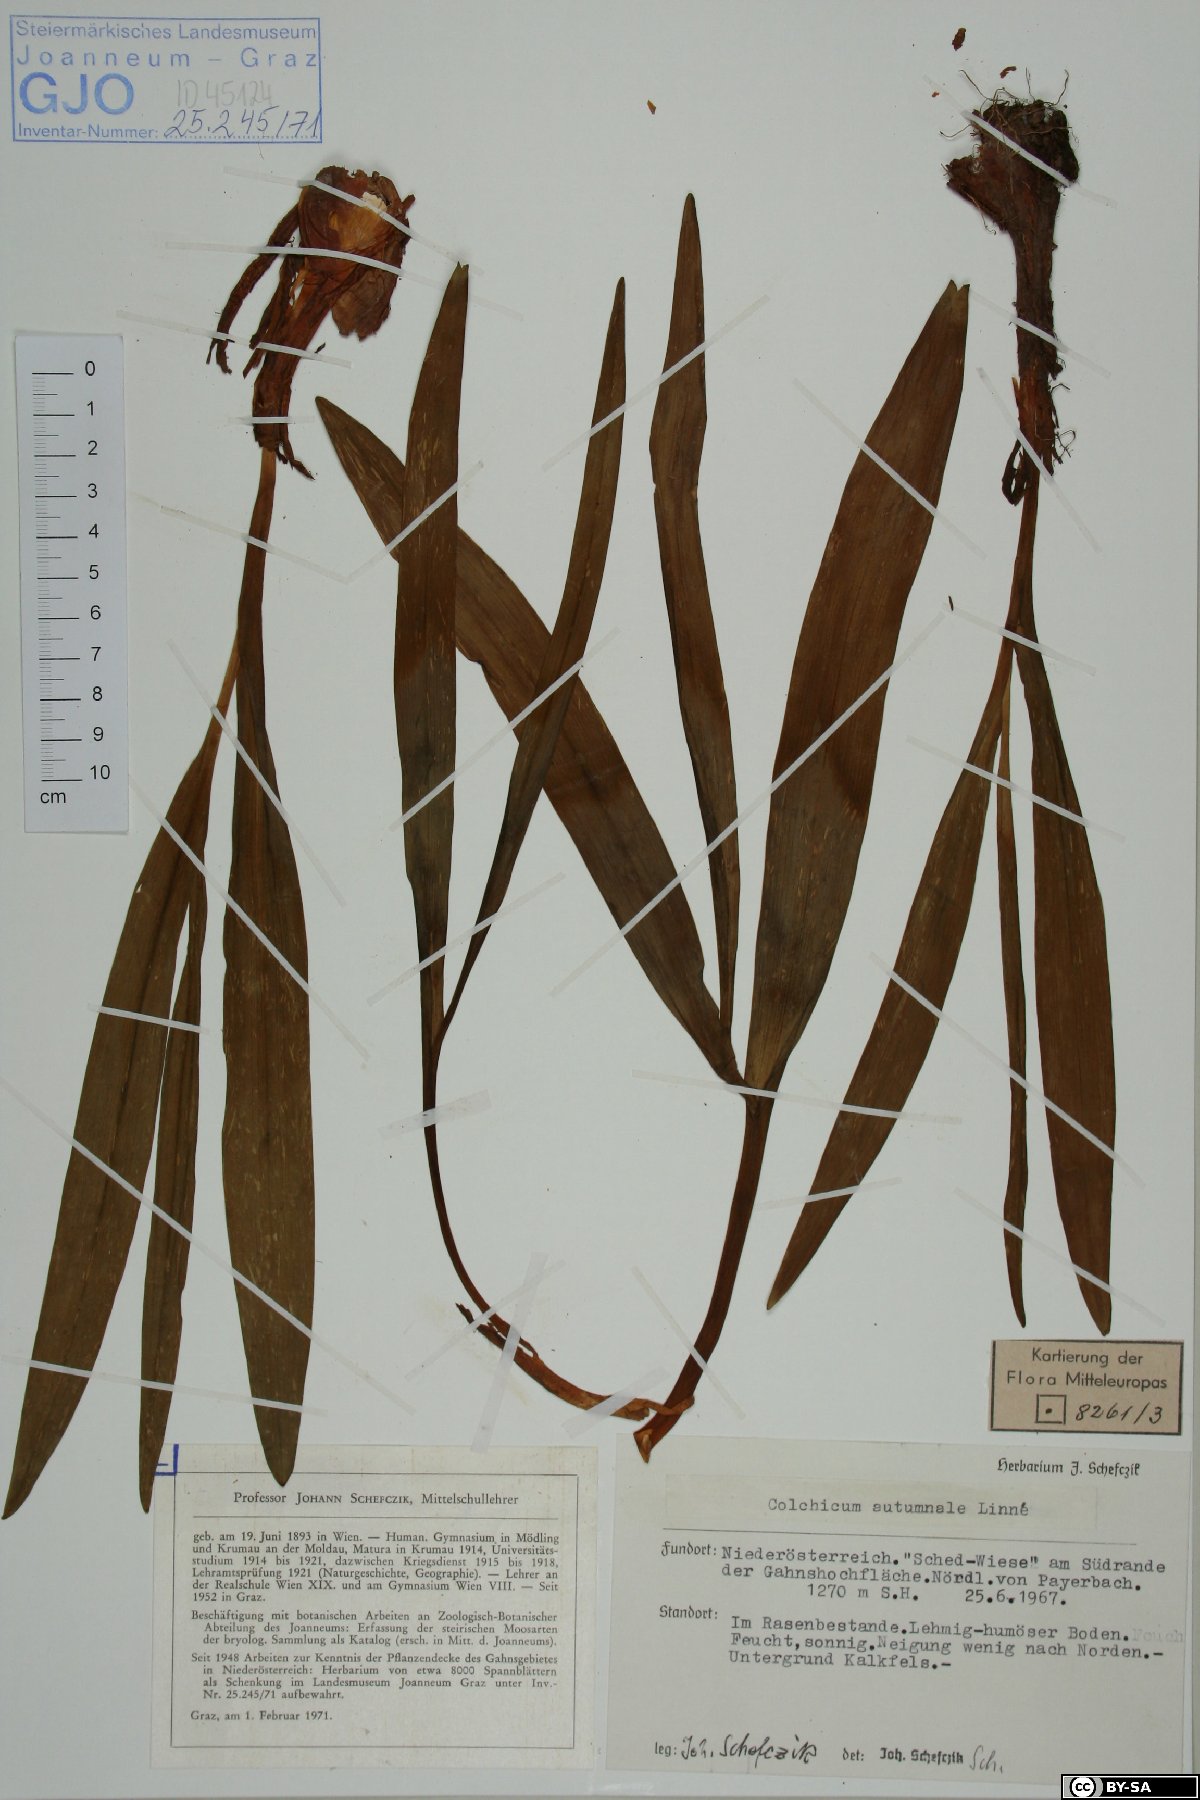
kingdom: Plantae
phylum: Tracheophyta
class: Liliopsida
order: Liliales
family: Colchicaceae
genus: Colchicum
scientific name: Colchicum autumnale
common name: Autumn crocus
